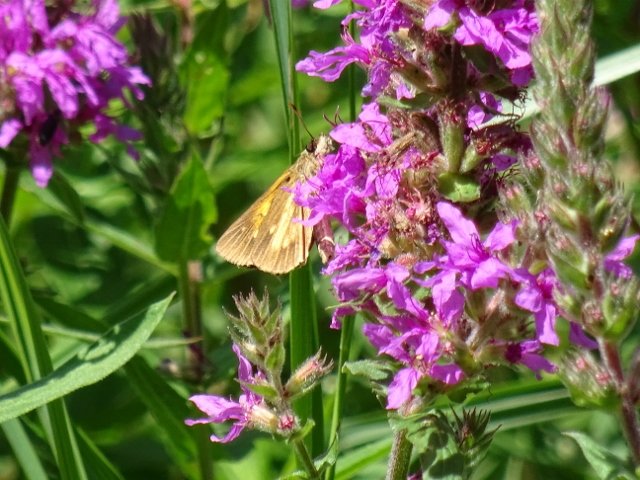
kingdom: Animalia
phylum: Arthropoda
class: Insecta
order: Lepidoptera
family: Hesperiidae
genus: Poanes
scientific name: Poanes viator
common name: Broad-winged Skipper
